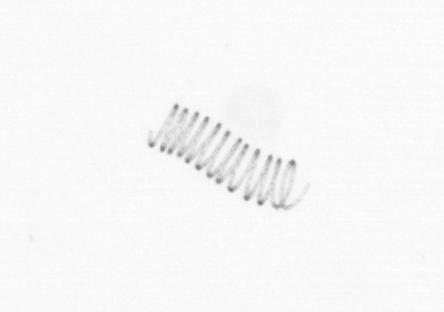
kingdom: Chromista
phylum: Ochrophyta
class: Bacillariophyceae
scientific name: Bacillariophyceae
